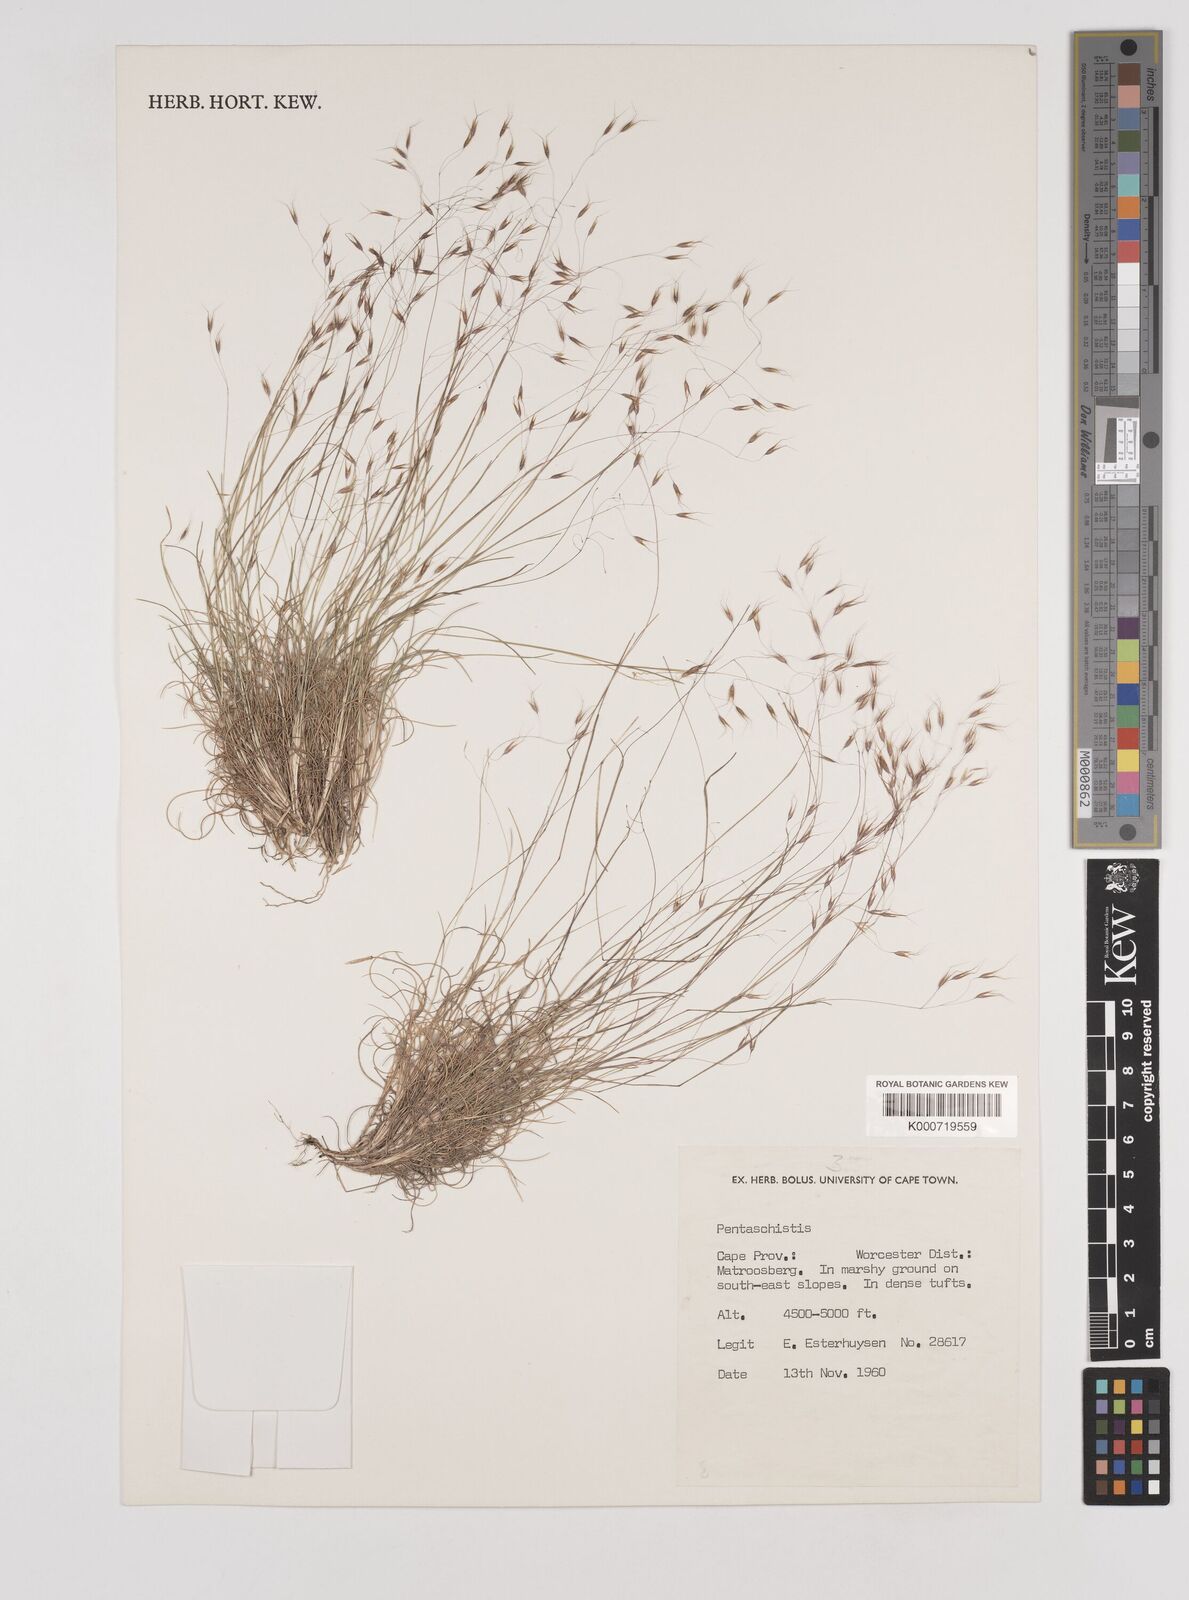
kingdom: Plantae
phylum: Tracheophyta
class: Liliopsida
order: Poales
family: Poaceae
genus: Pentameris
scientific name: Pentameris alticola
